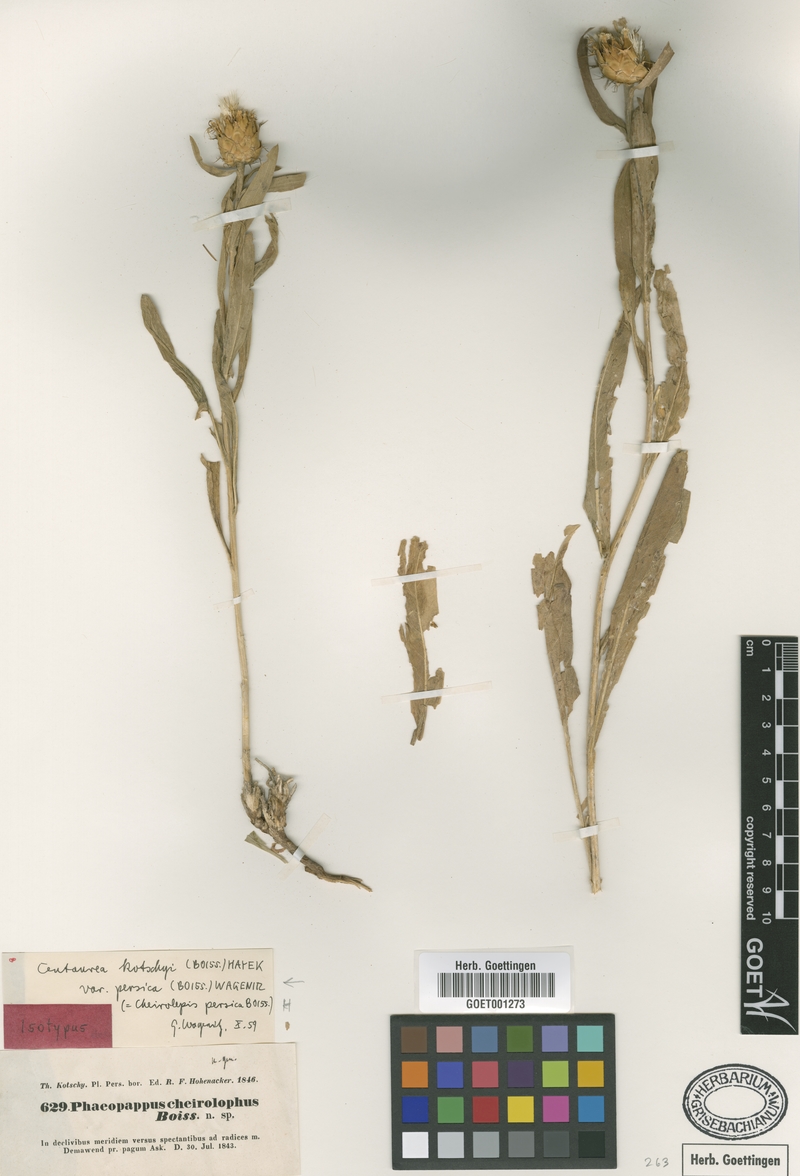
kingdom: Plantae
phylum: Tracheophyta
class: Magnoliopsida
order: Asterales
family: Asteraceae
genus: Centaurea
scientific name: Centaurea kotschyi
